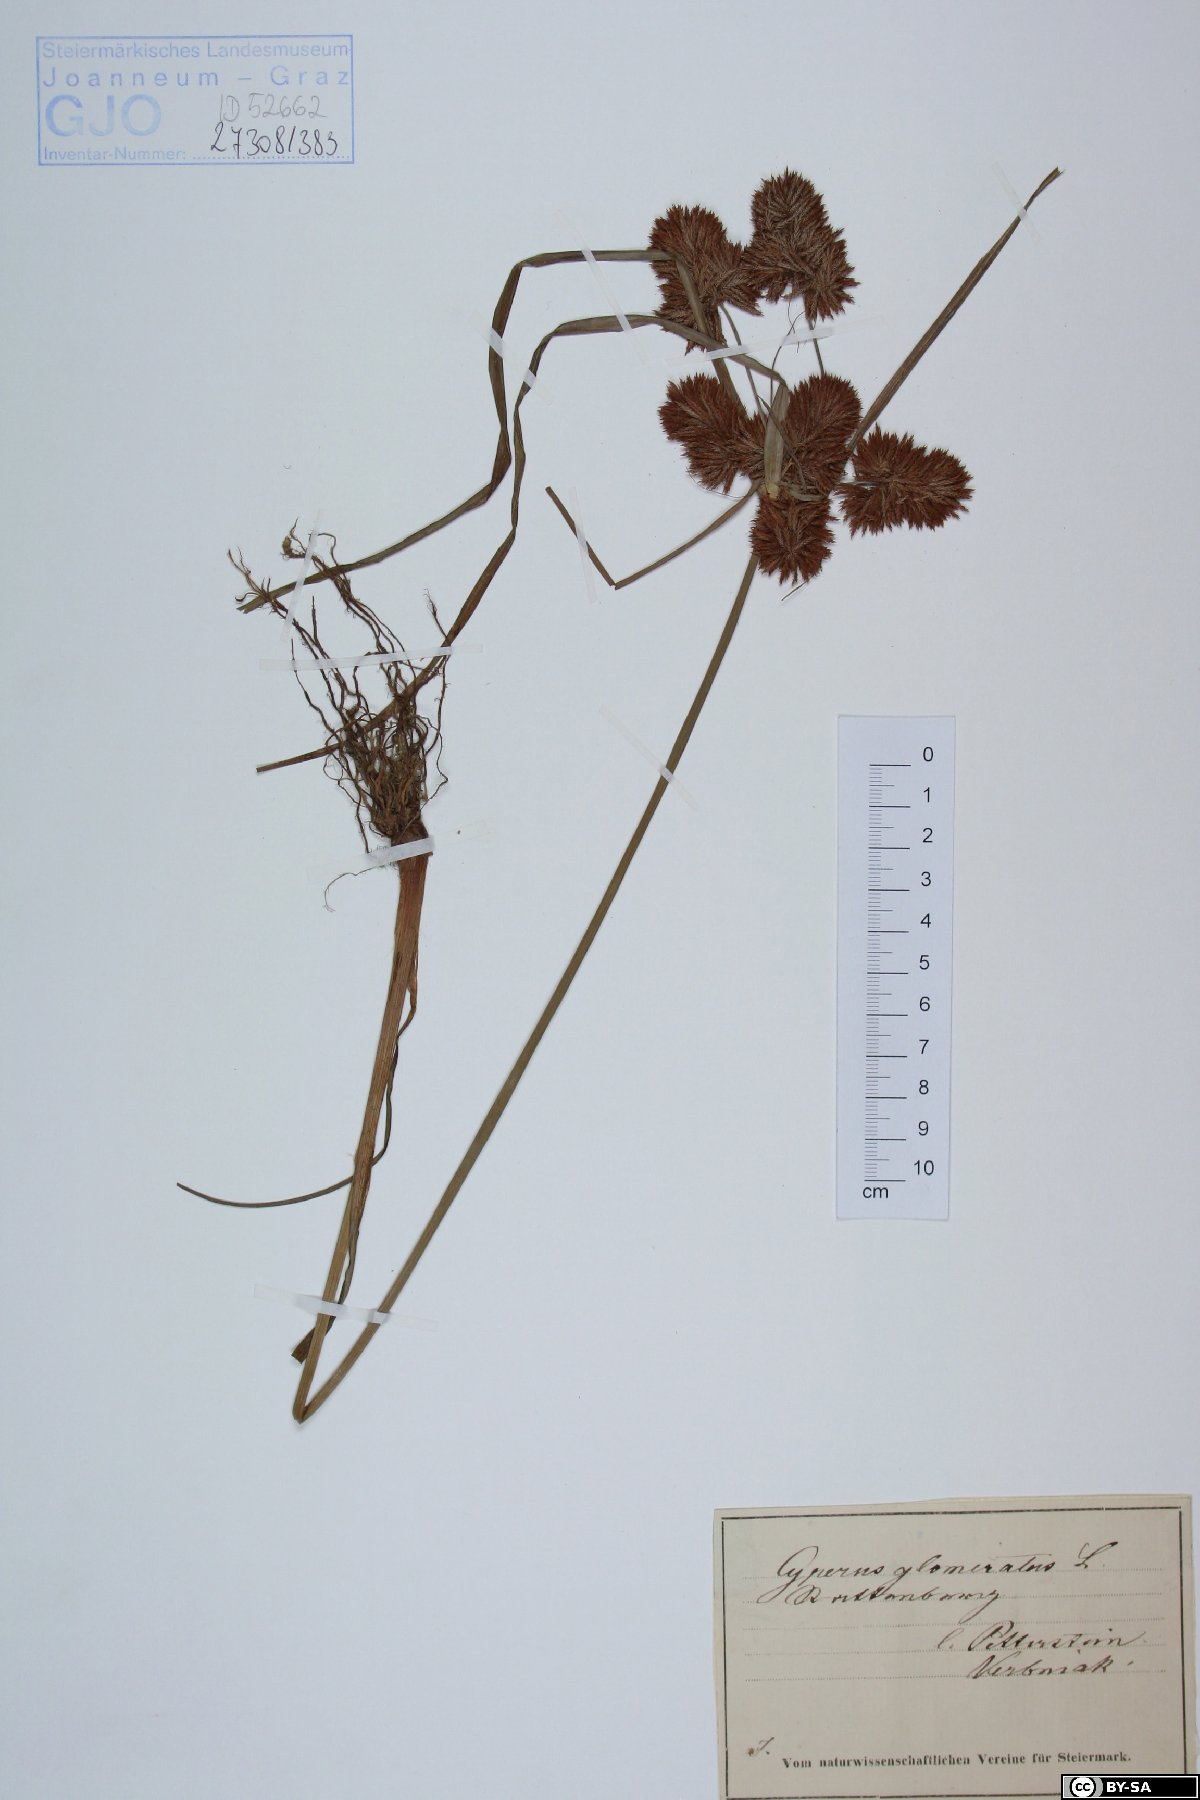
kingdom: Plantae
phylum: Tracheophyta
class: Liliopsida
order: Poales
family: Cyperaceae
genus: Cyperus
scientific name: Cyperus glomeratus
